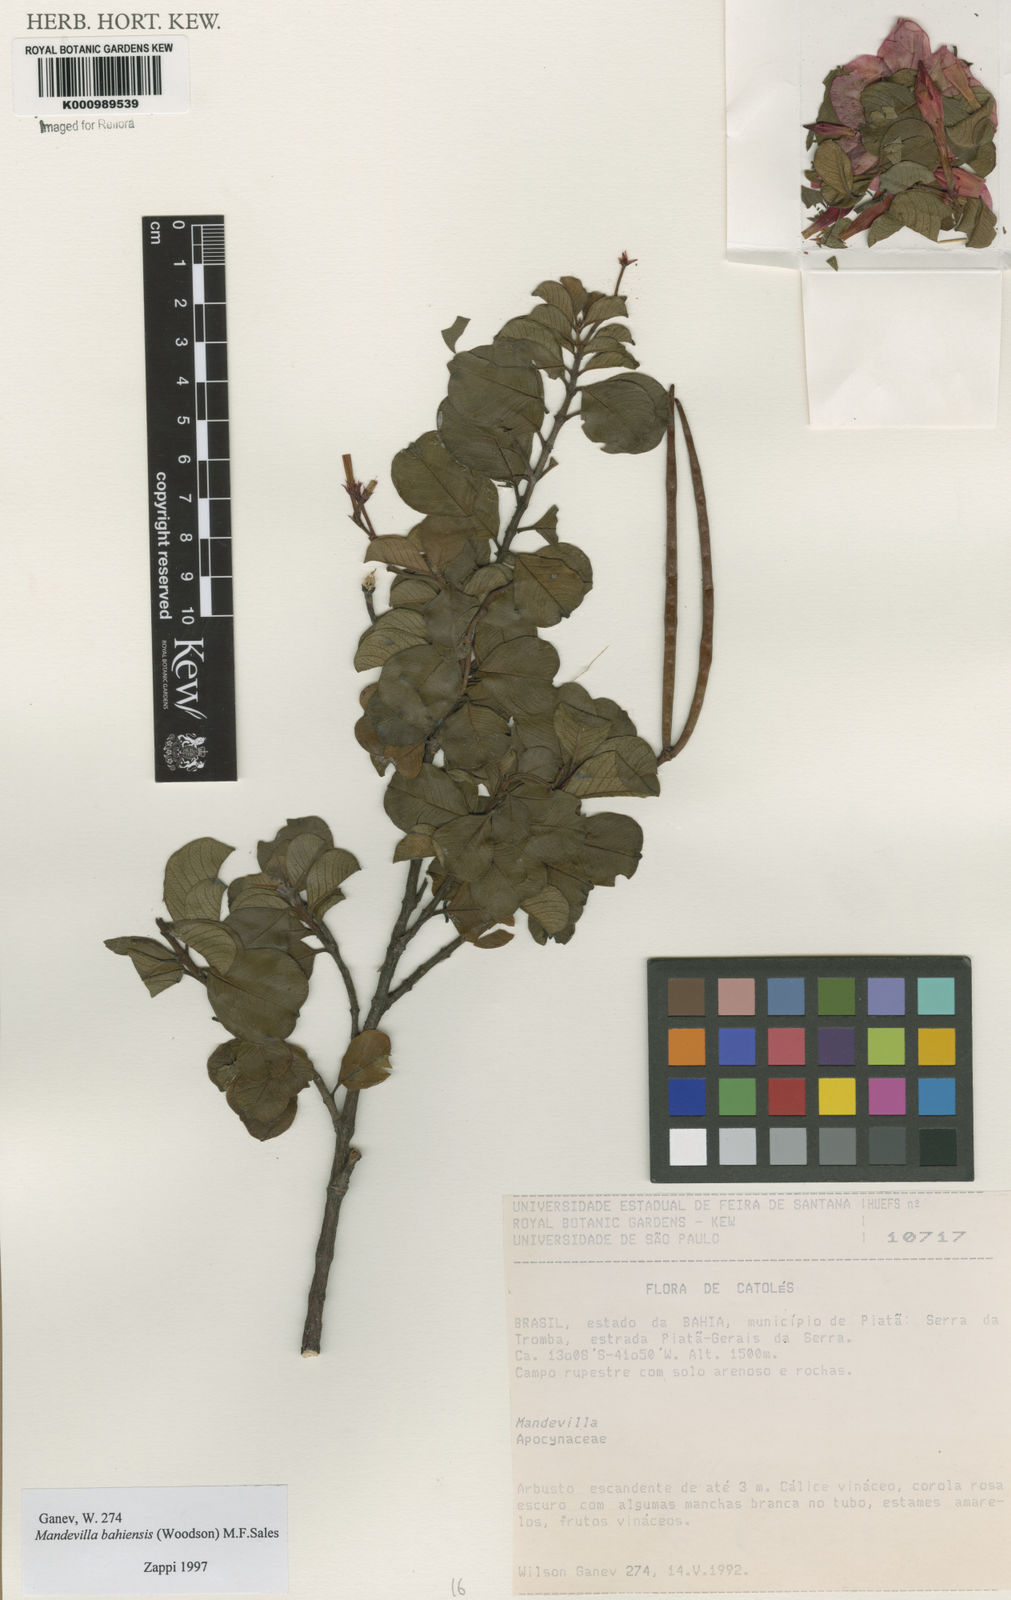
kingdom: Plantae
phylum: Tracheophyta
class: Magnoliopsida
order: Gentianales
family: Apocynaceae
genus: Mandevilla
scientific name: Mandevilla bahiensis
